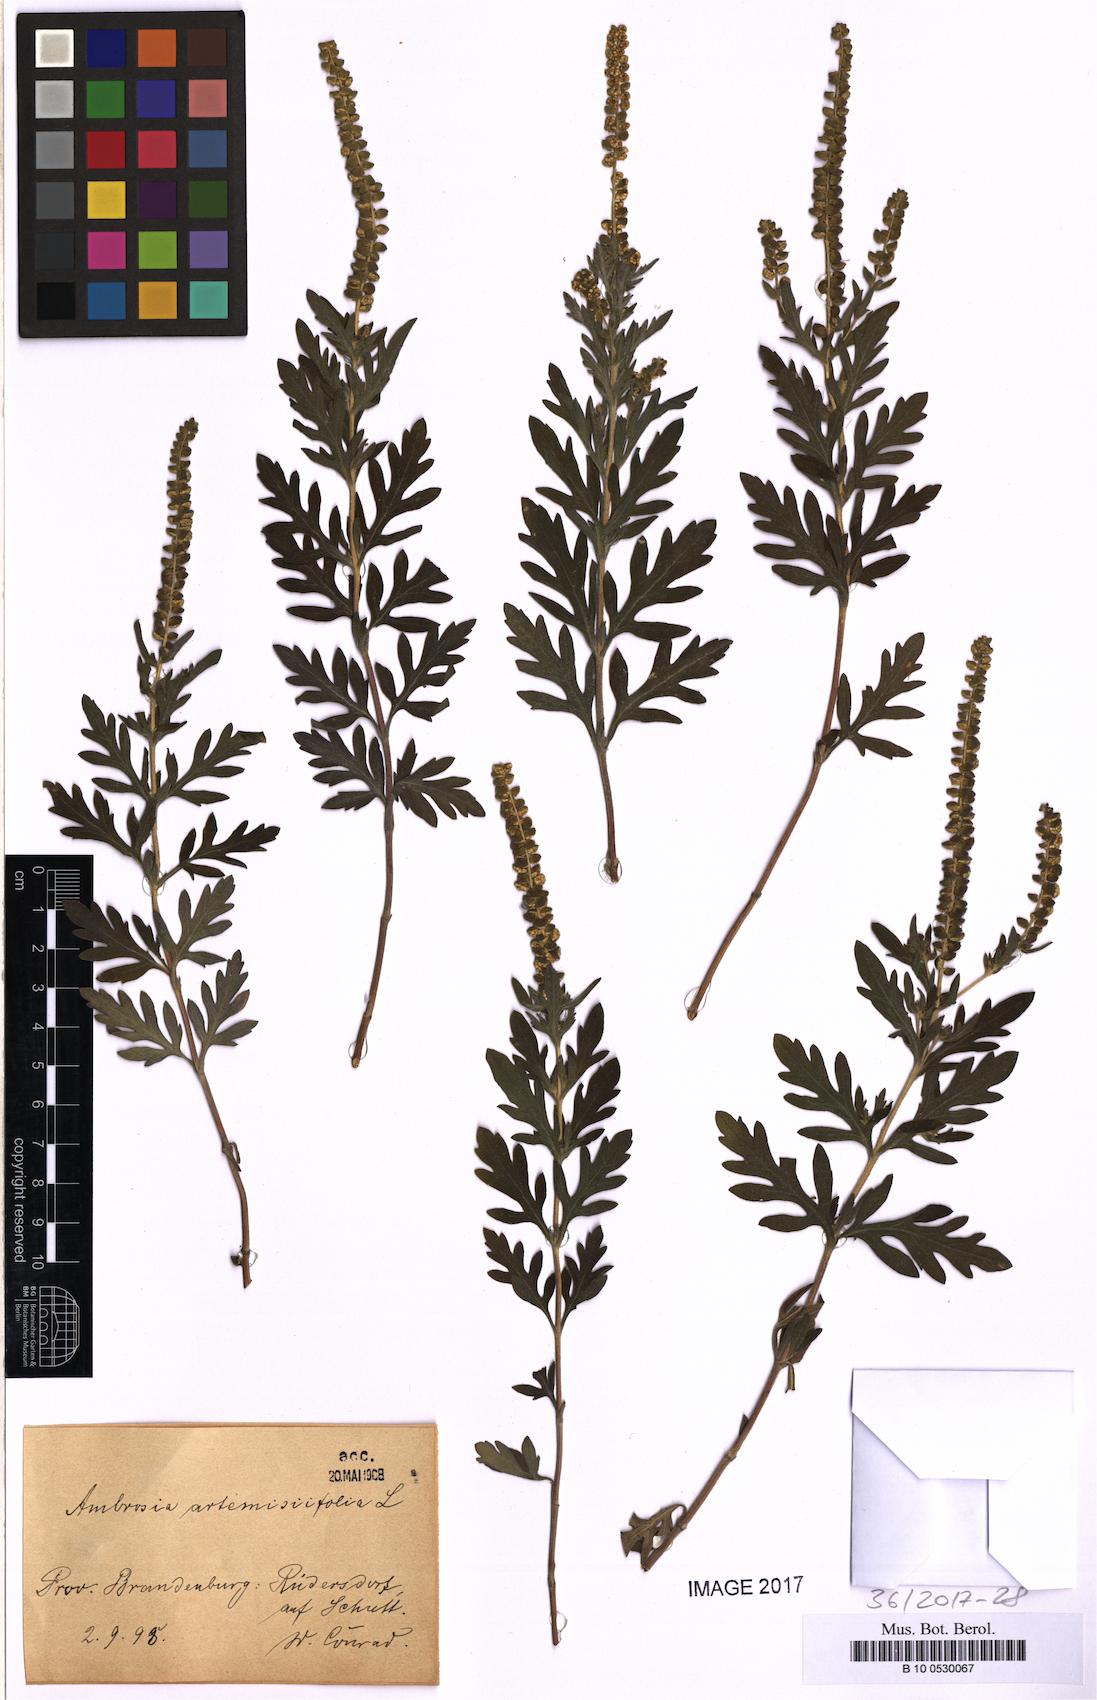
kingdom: Plantae
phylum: Tracheophyta
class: Magnoliopsida
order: Asterales
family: Asteraceae
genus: Ambrosia
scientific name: Ambrosia artemisiifolia
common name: Annual ragweed
